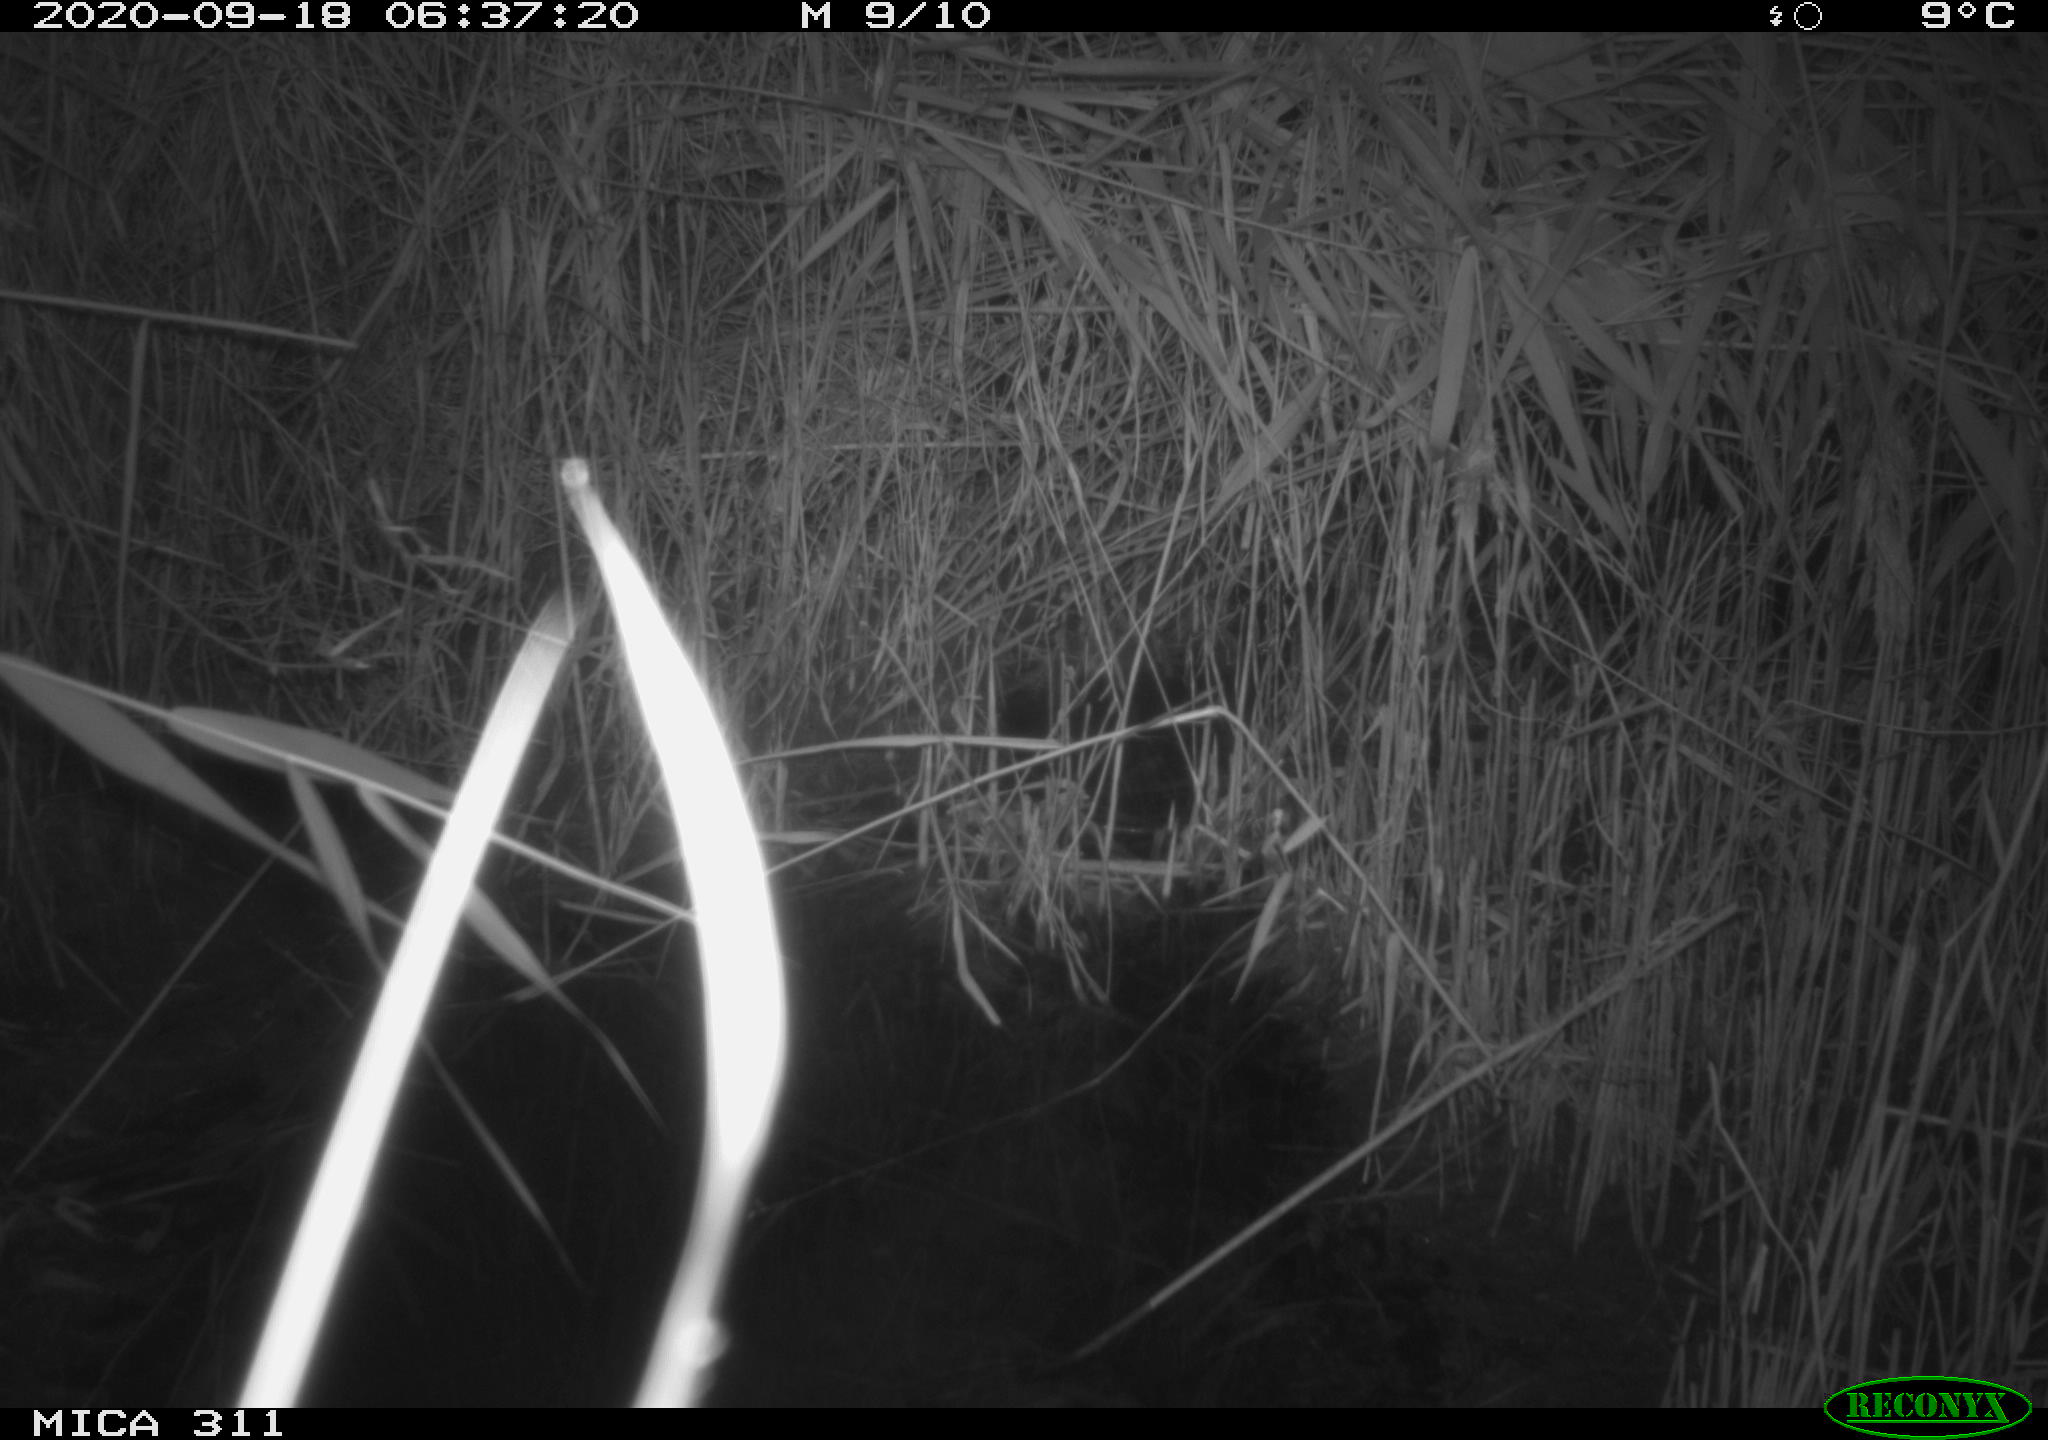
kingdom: Animalia
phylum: Chordata
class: Mammalia
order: Rodentia
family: Muridae
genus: Rattus
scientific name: Rattus norvegicus
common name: Brown rat
